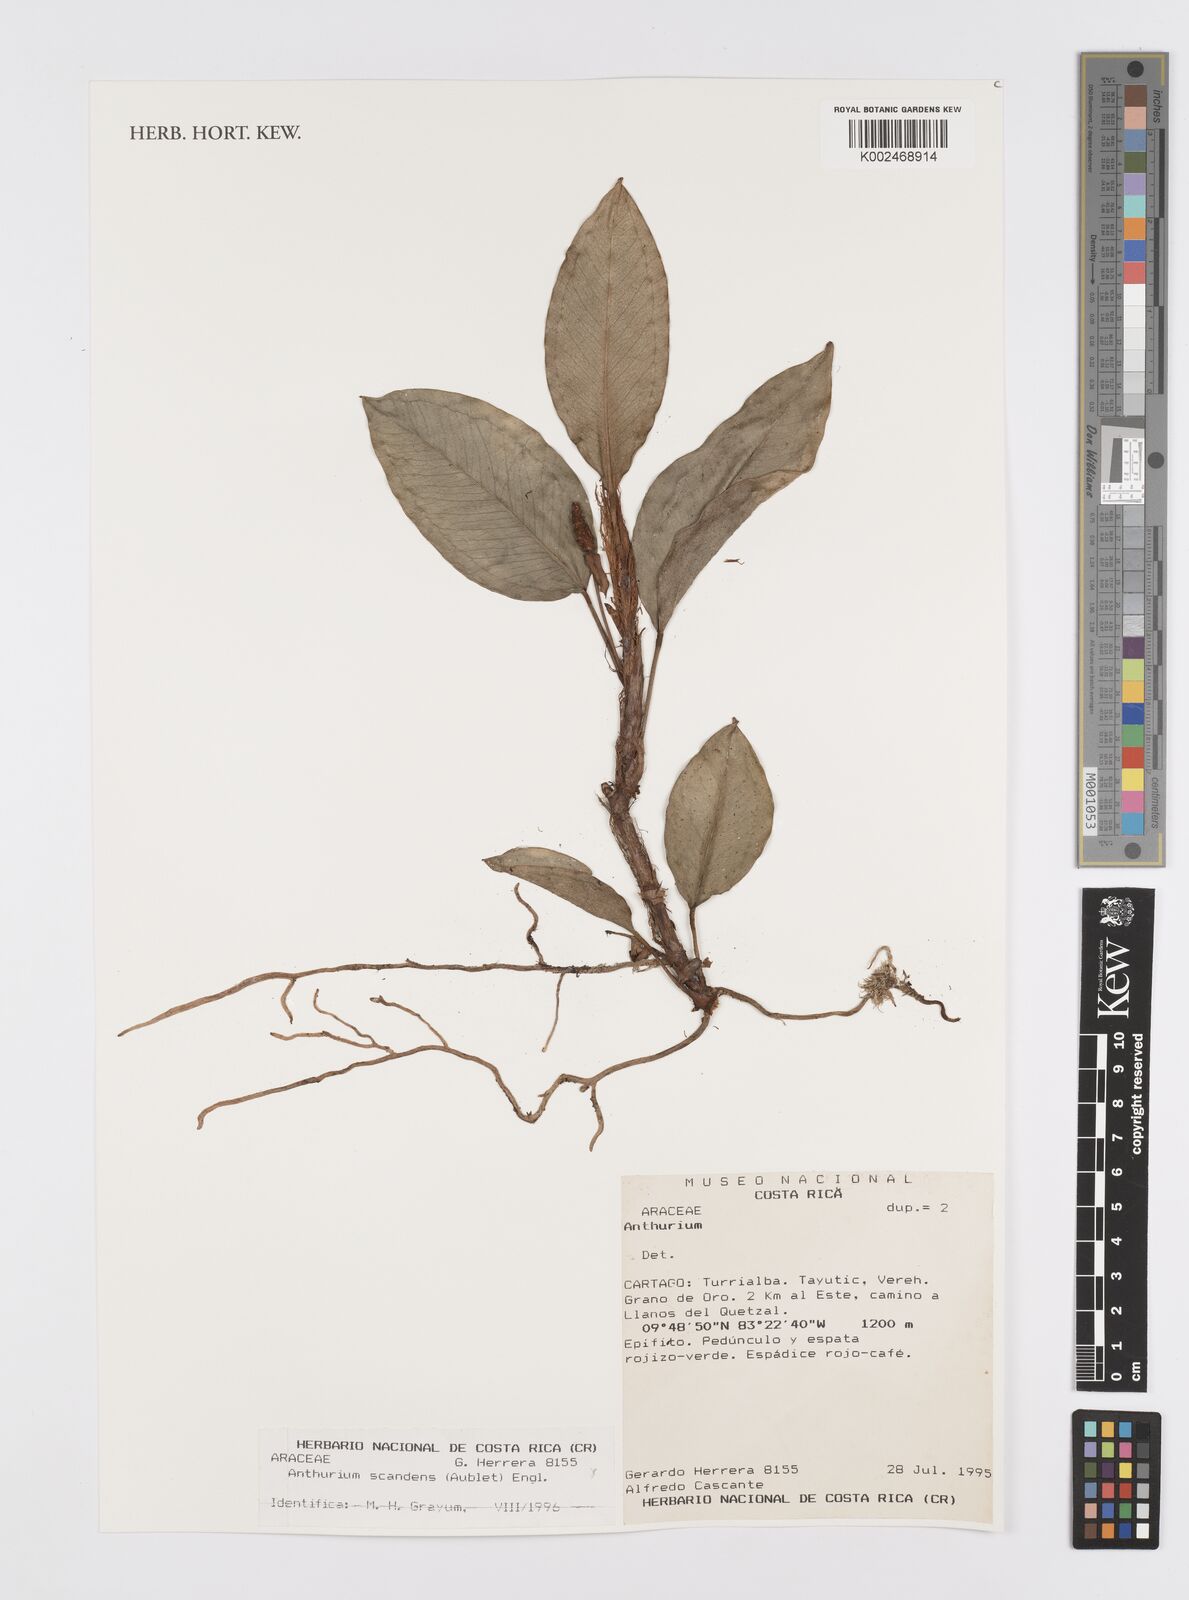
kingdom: Plantae
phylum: Tracheophyta
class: Liliopsida
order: Alismatales
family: Araceae
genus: Anthurium
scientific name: Anthurium scandens
